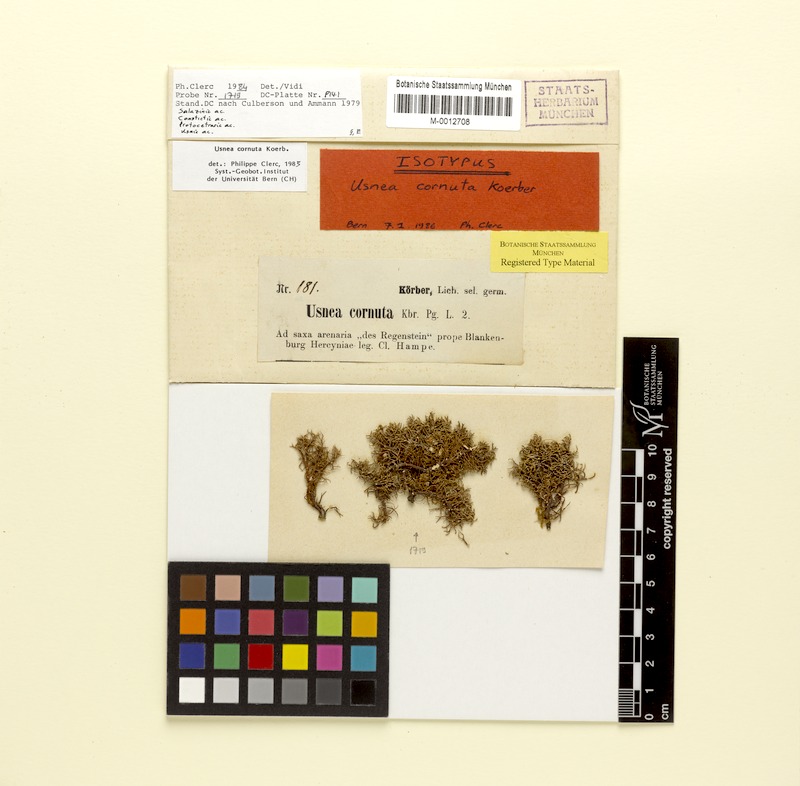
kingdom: Fungi
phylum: Ascomycota
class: Lecanoromycetes
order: Lecanorales
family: Parmeliaceae
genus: Usnea
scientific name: Usnea cornuta
